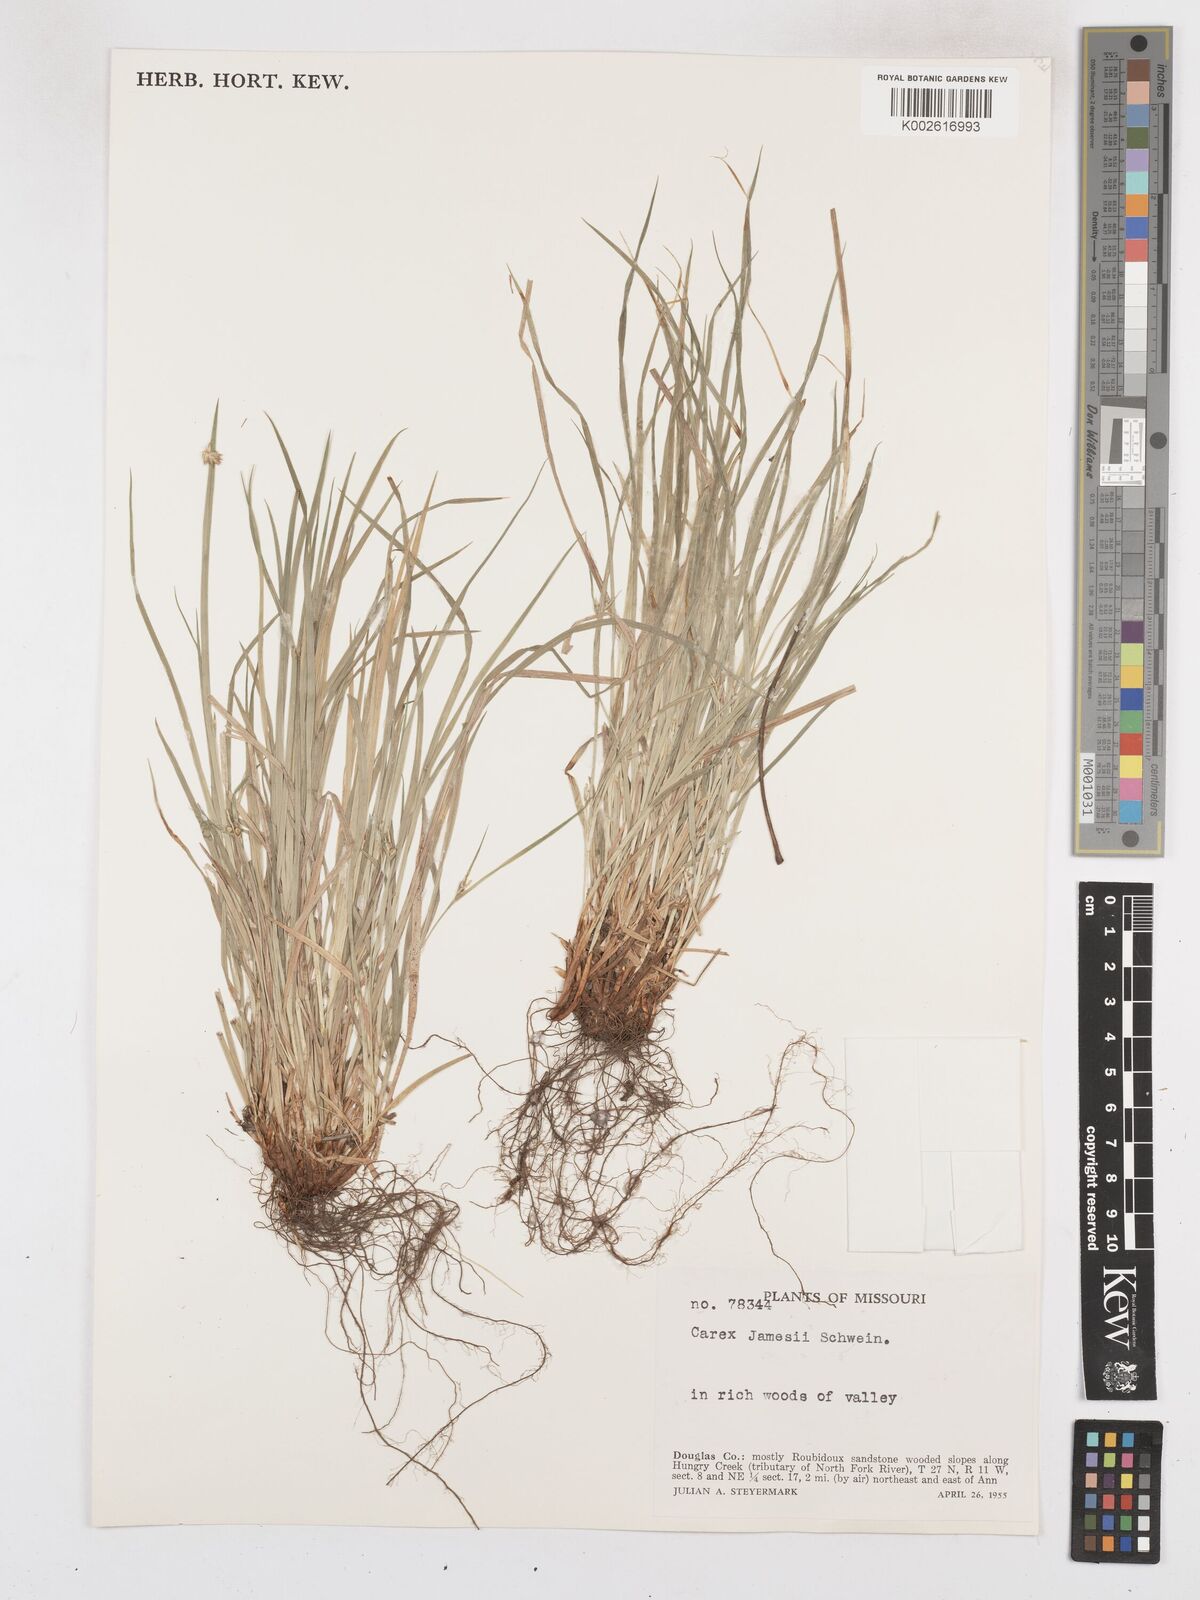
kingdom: Plantae
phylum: Tracheophyta
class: Liliopsida
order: Poales
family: Cyperaceae
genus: Carex
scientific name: Carex jamesii
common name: Grass sedge
